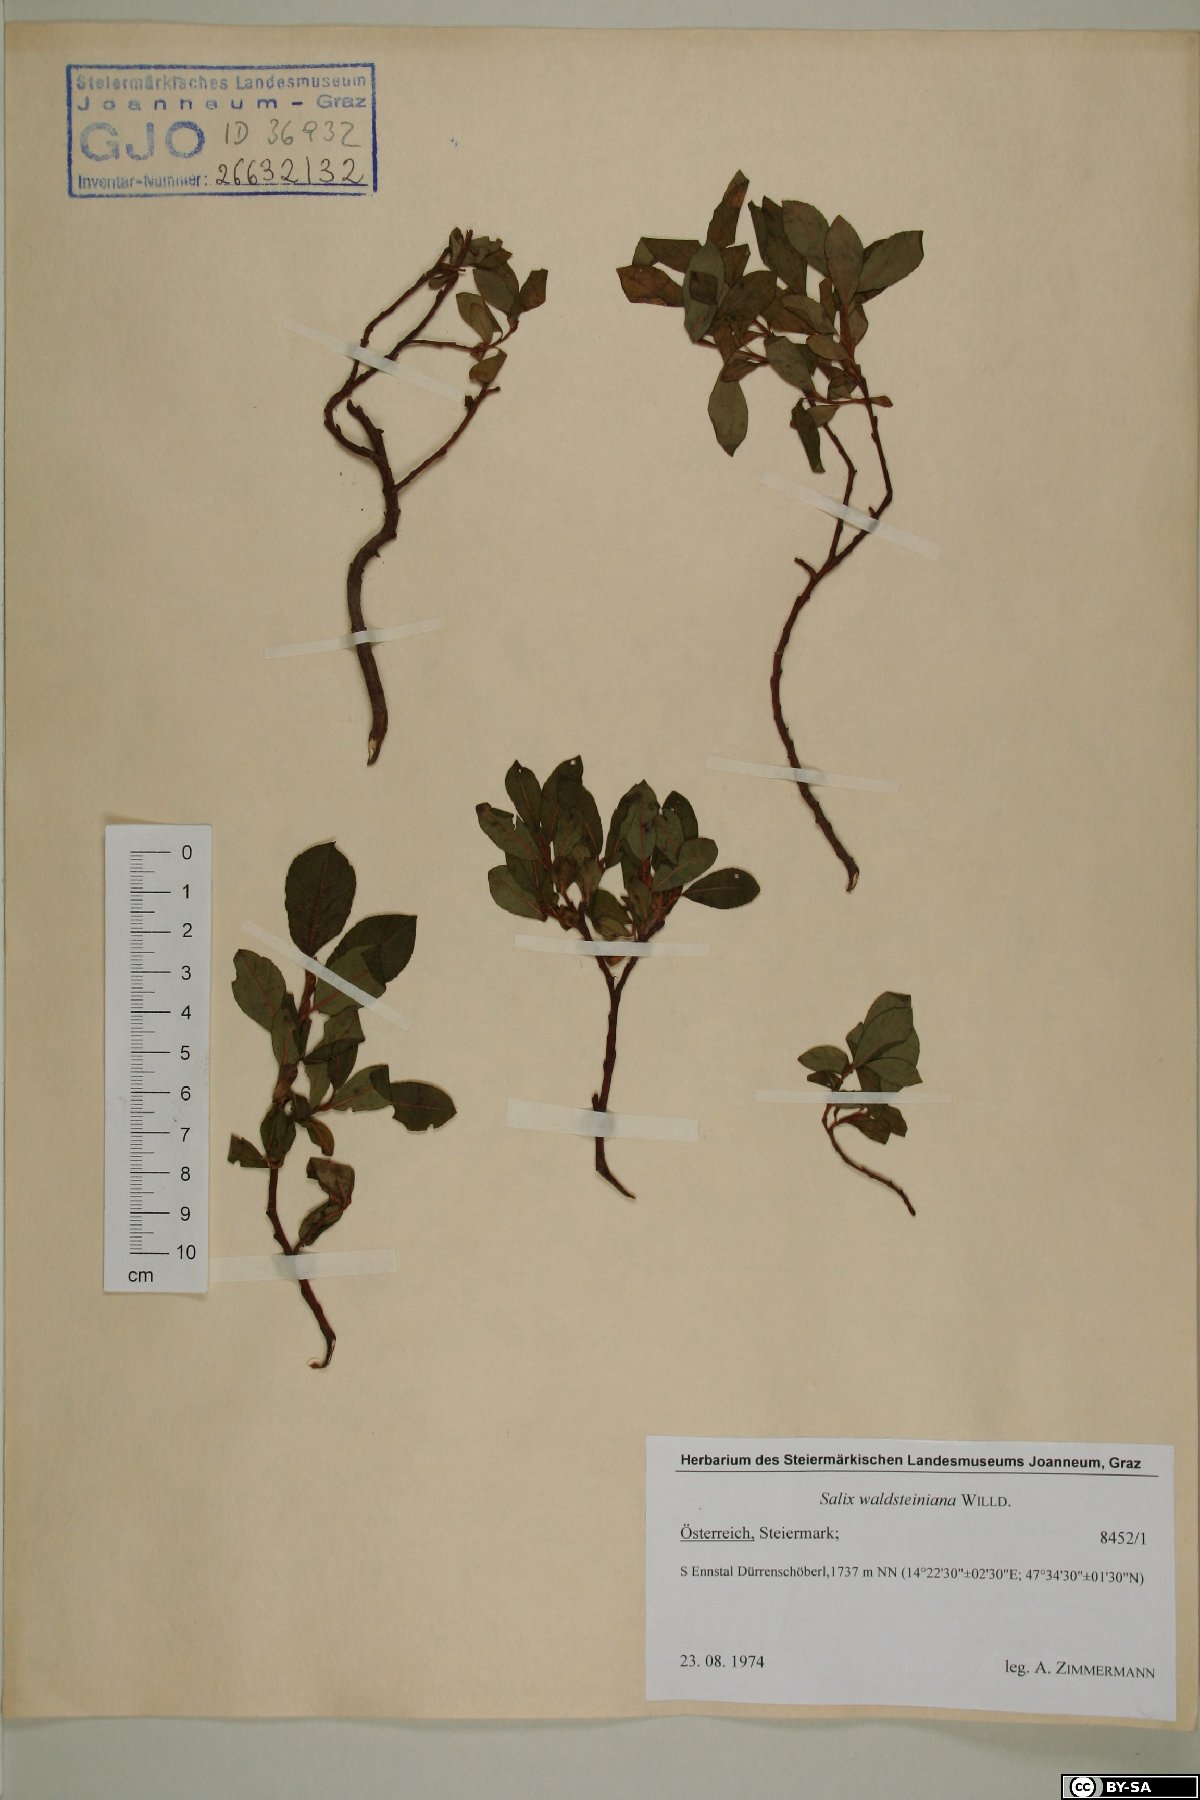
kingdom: Plantae
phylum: Tracheophyta
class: Magnoliopsida
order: Malpighiales
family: Salicaceae
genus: Salix
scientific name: Salix waldsteiniana
